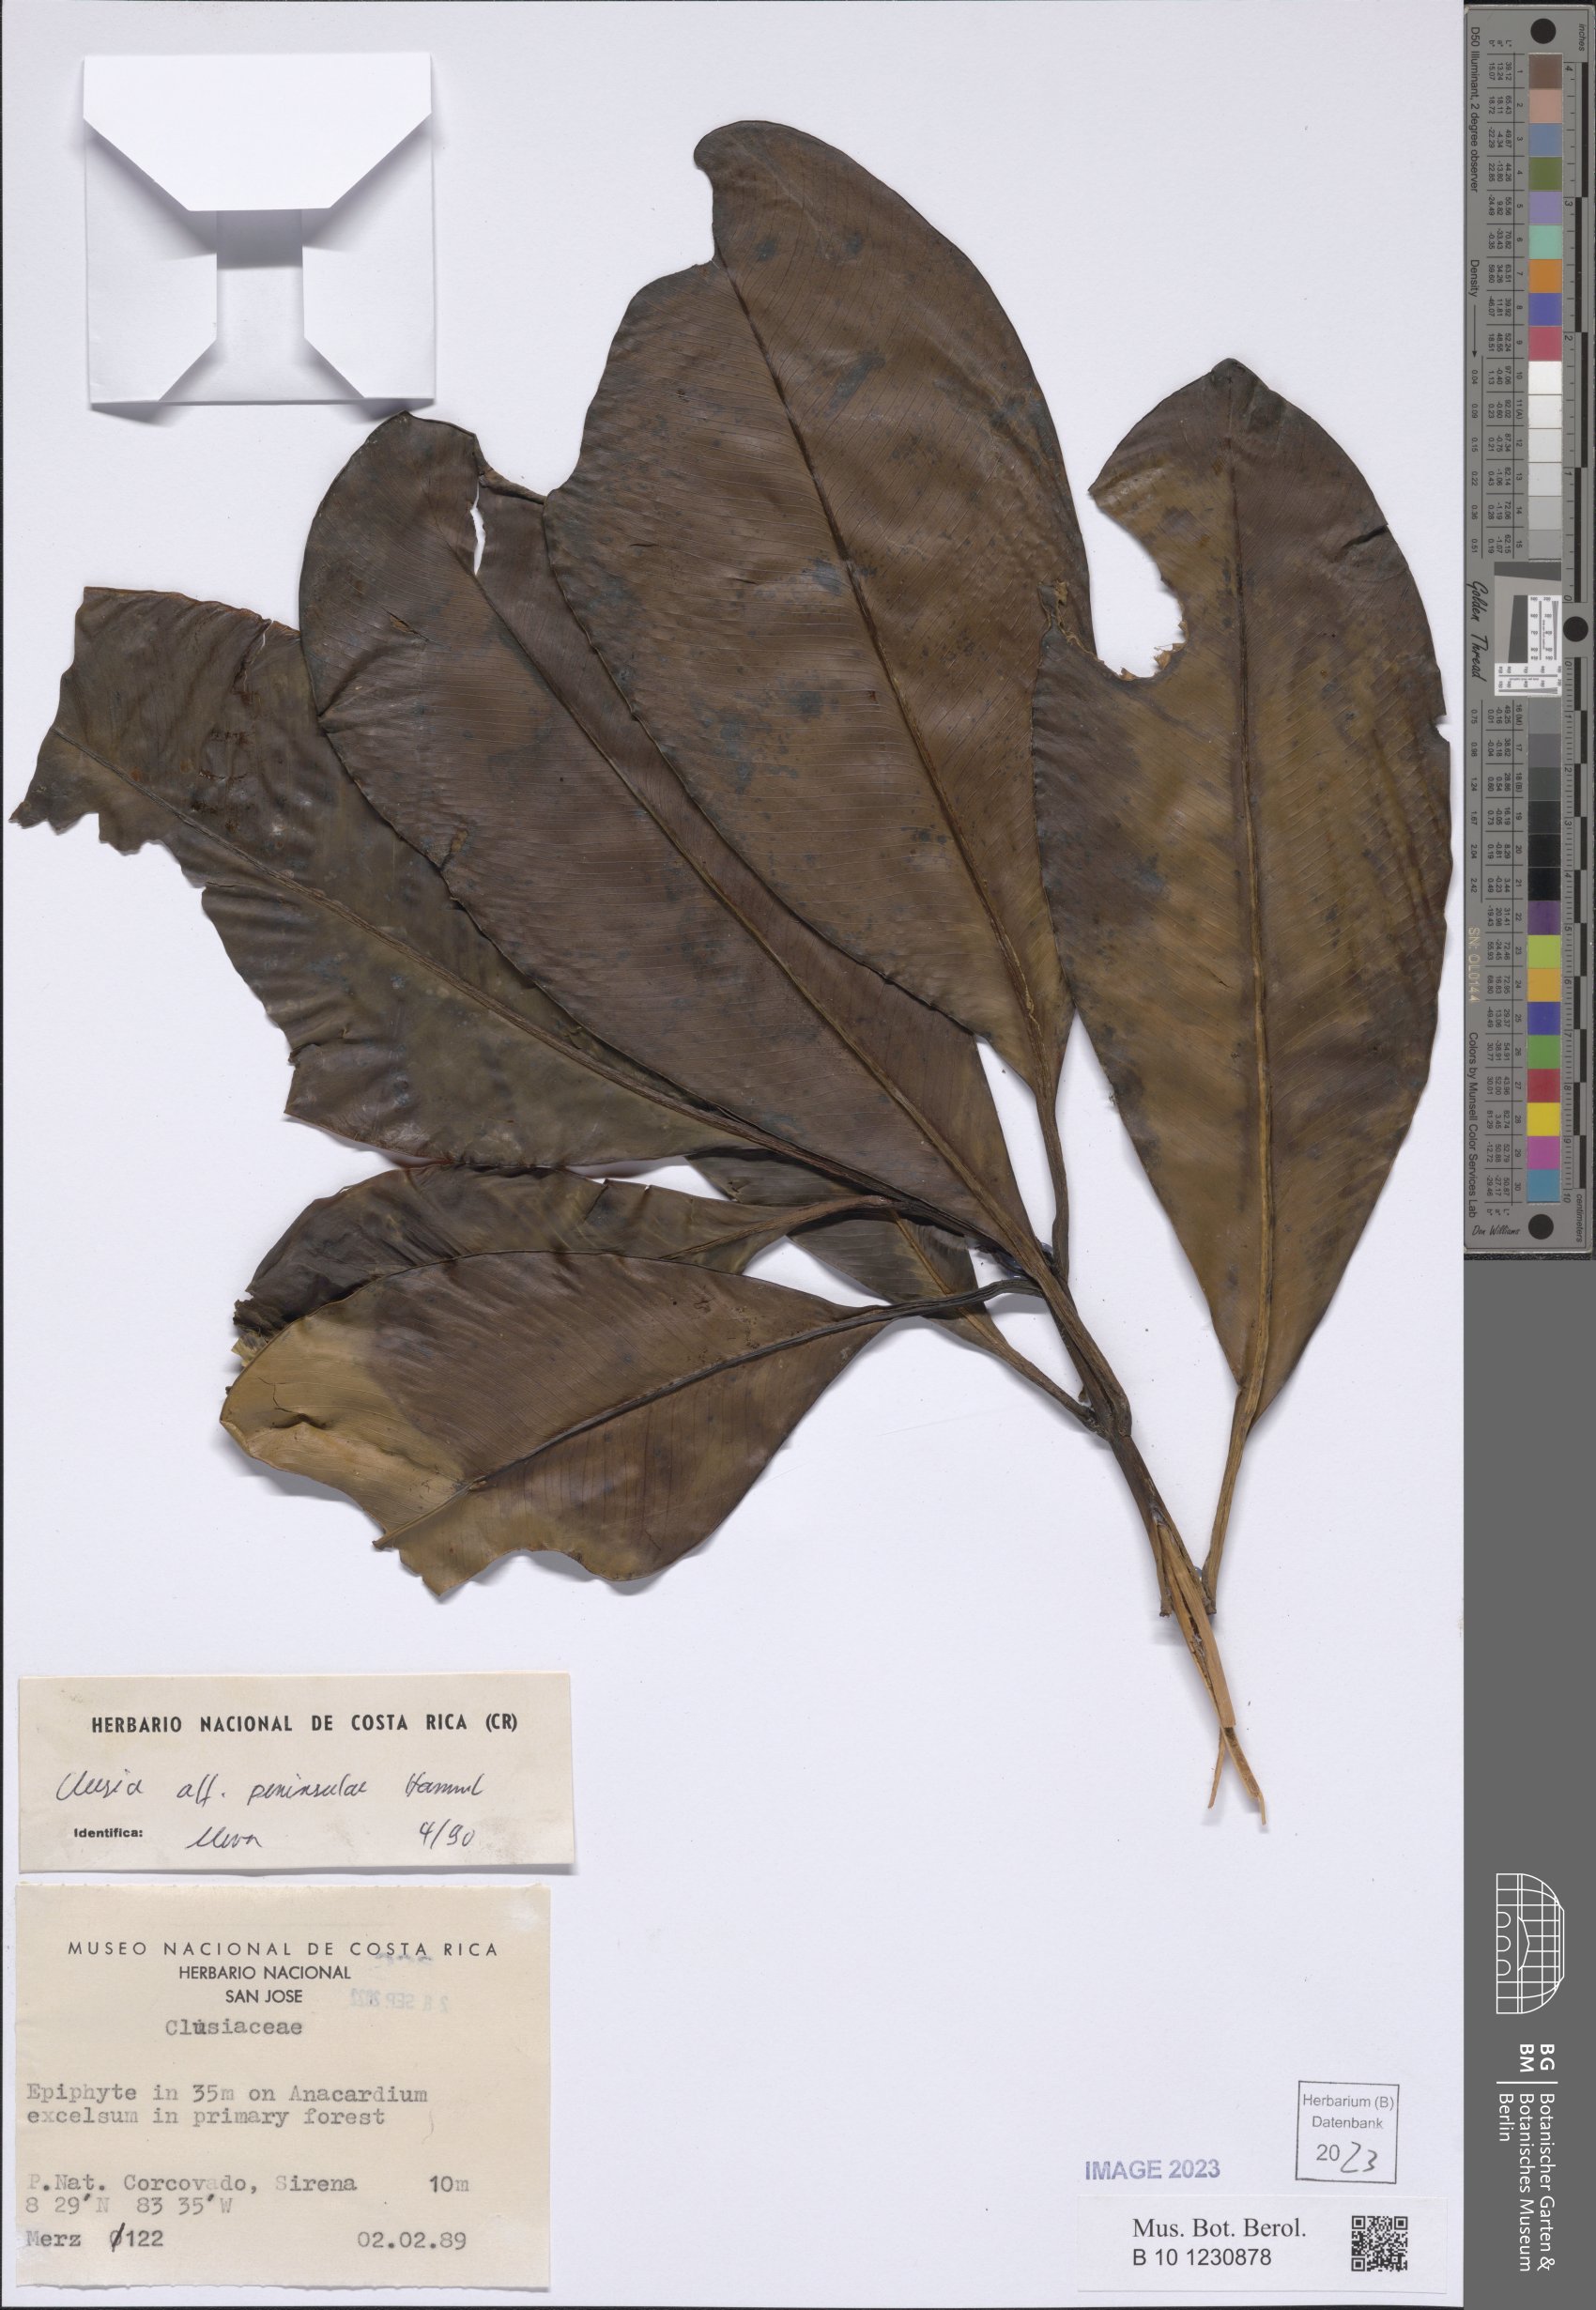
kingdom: Plantae
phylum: Tracheophyta
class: Magnoliopsida
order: Malpighiales
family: Clusiaceae
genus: Clusia
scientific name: Clusia peninsulae
